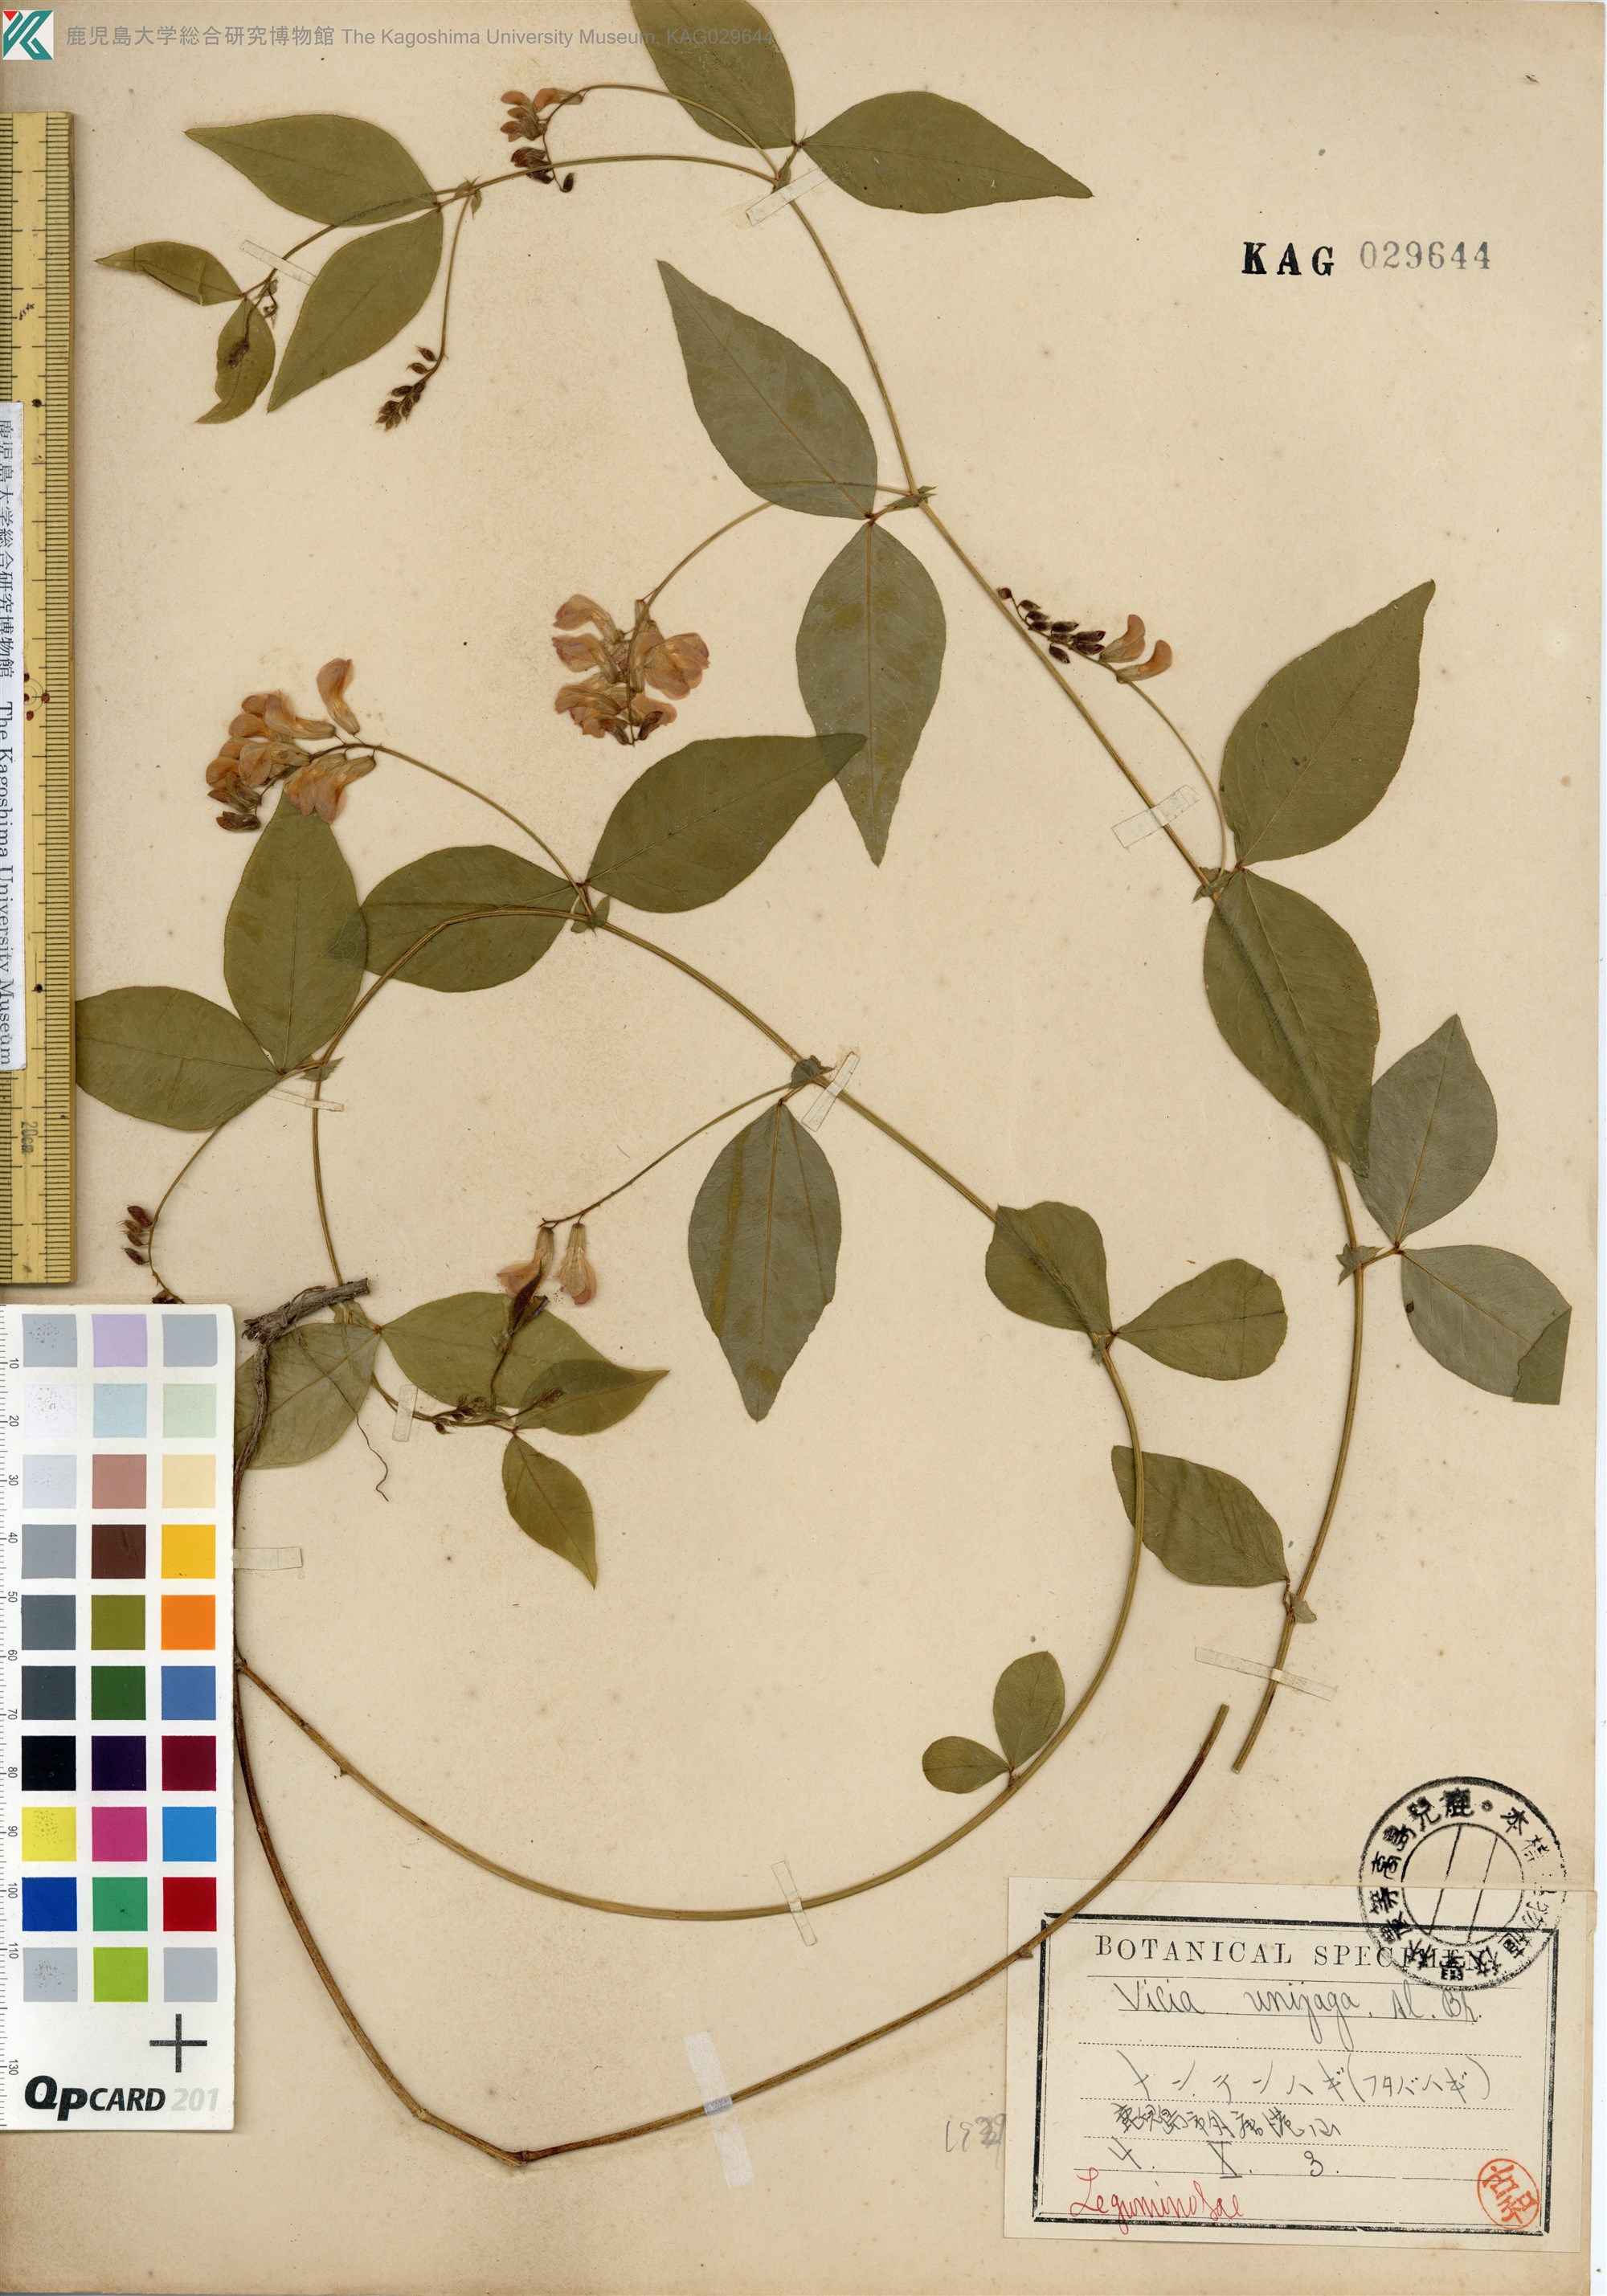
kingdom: Plantae
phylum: Tracheophyta
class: Magnoliopsida
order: Fabales
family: Fabaceae
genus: Vicia
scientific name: Vicia unijuga
